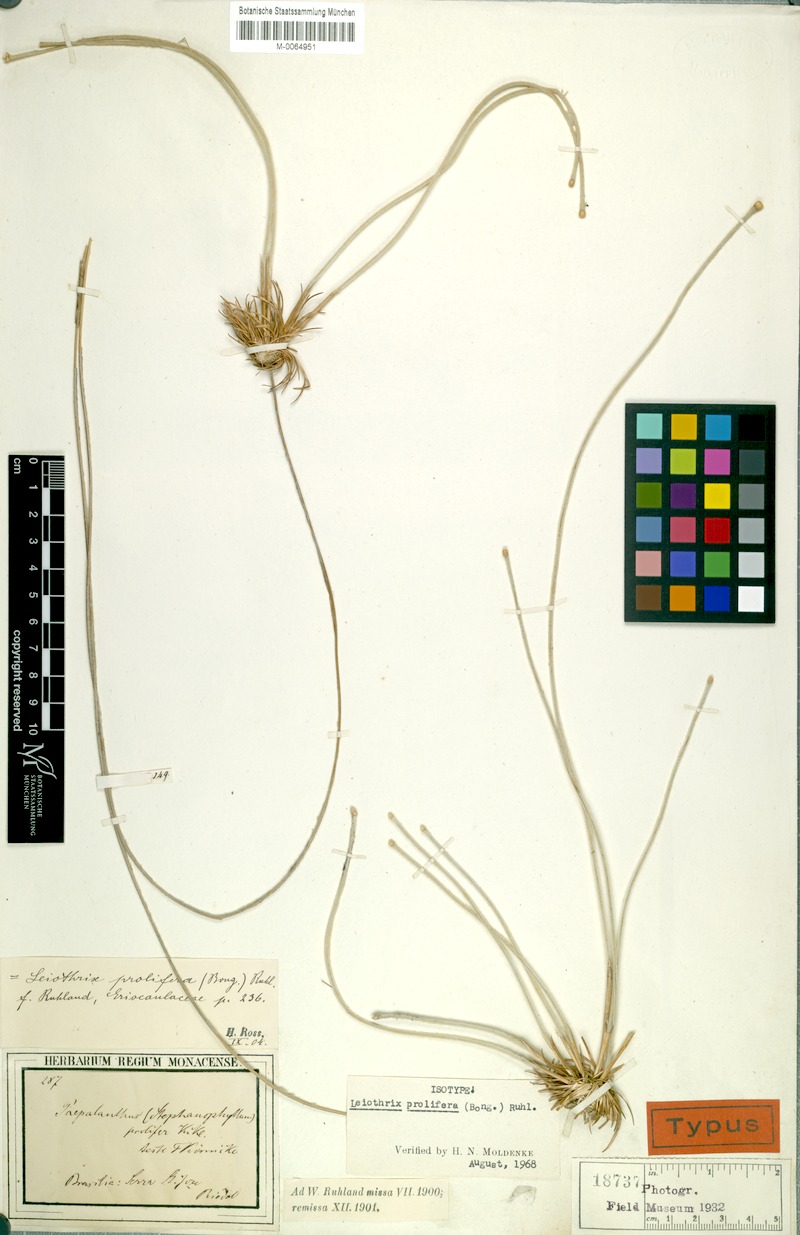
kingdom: Plantae
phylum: Tracheophyta
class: Liliopsida
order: Poales
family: Eriocaulaceae
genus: Leiothrix
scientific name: Leiothrix prolifera
